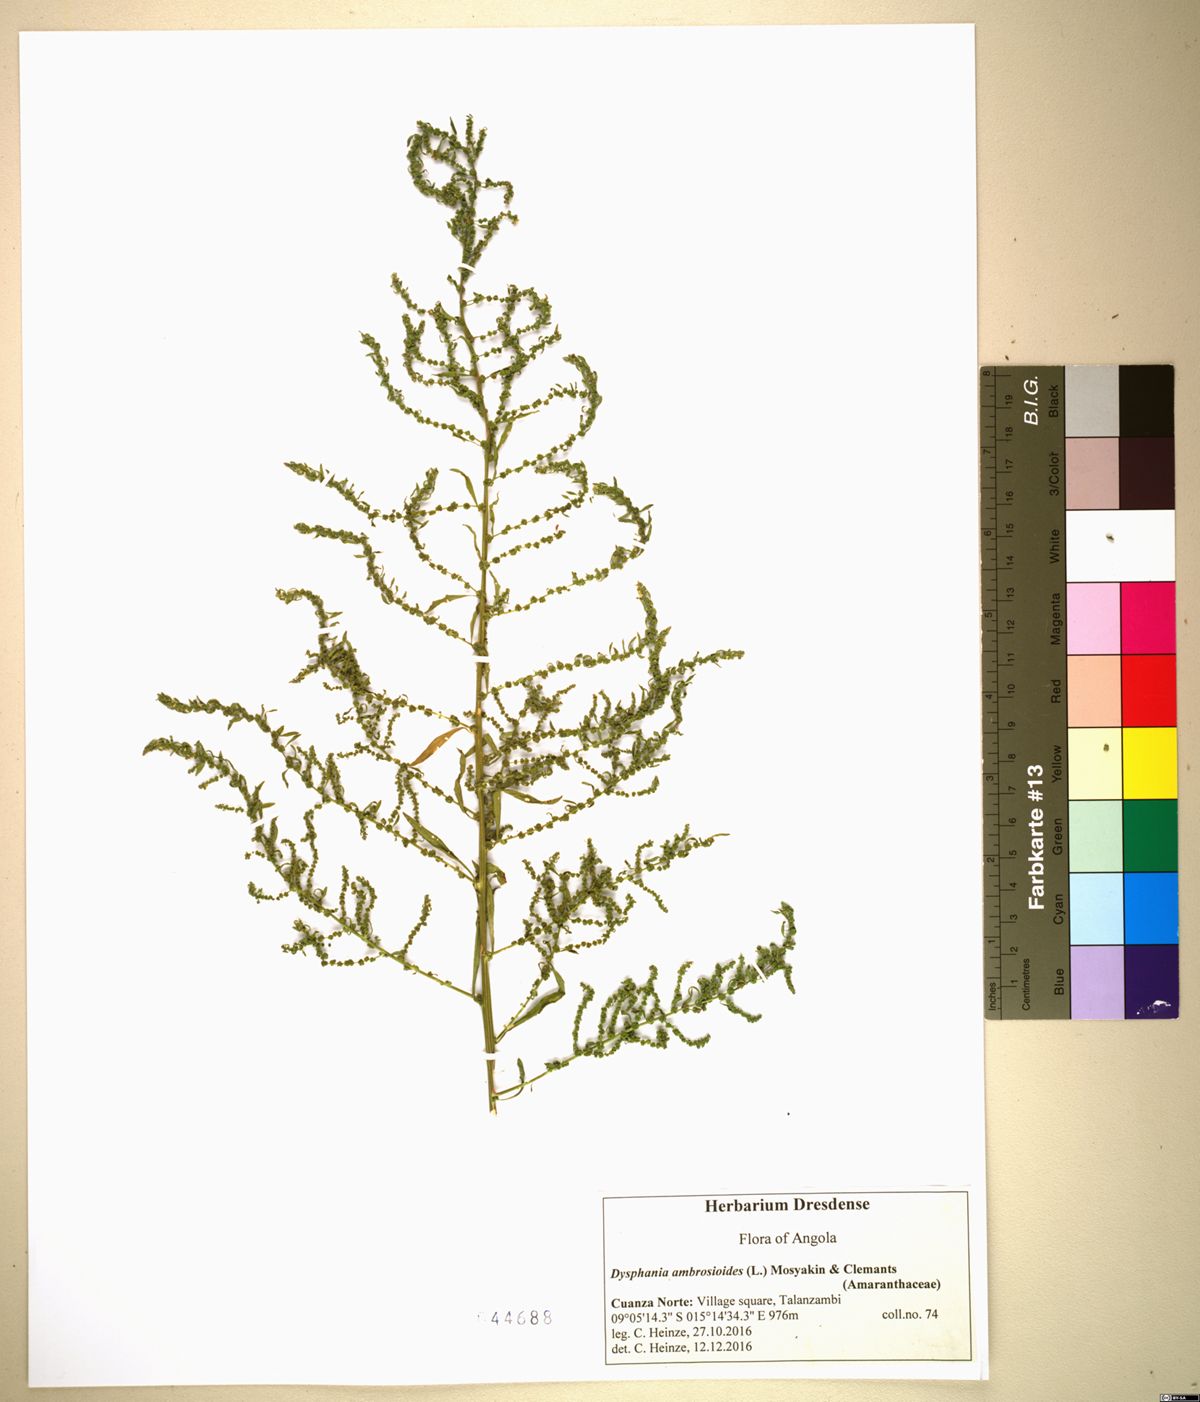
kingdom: Plantae
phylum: Tracheophyta
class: Magnoliopsida
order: Caryophyllales
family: Amaranthaceae
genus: Dysphania
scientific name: Dysphania ambrosioides
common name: Wormseed
